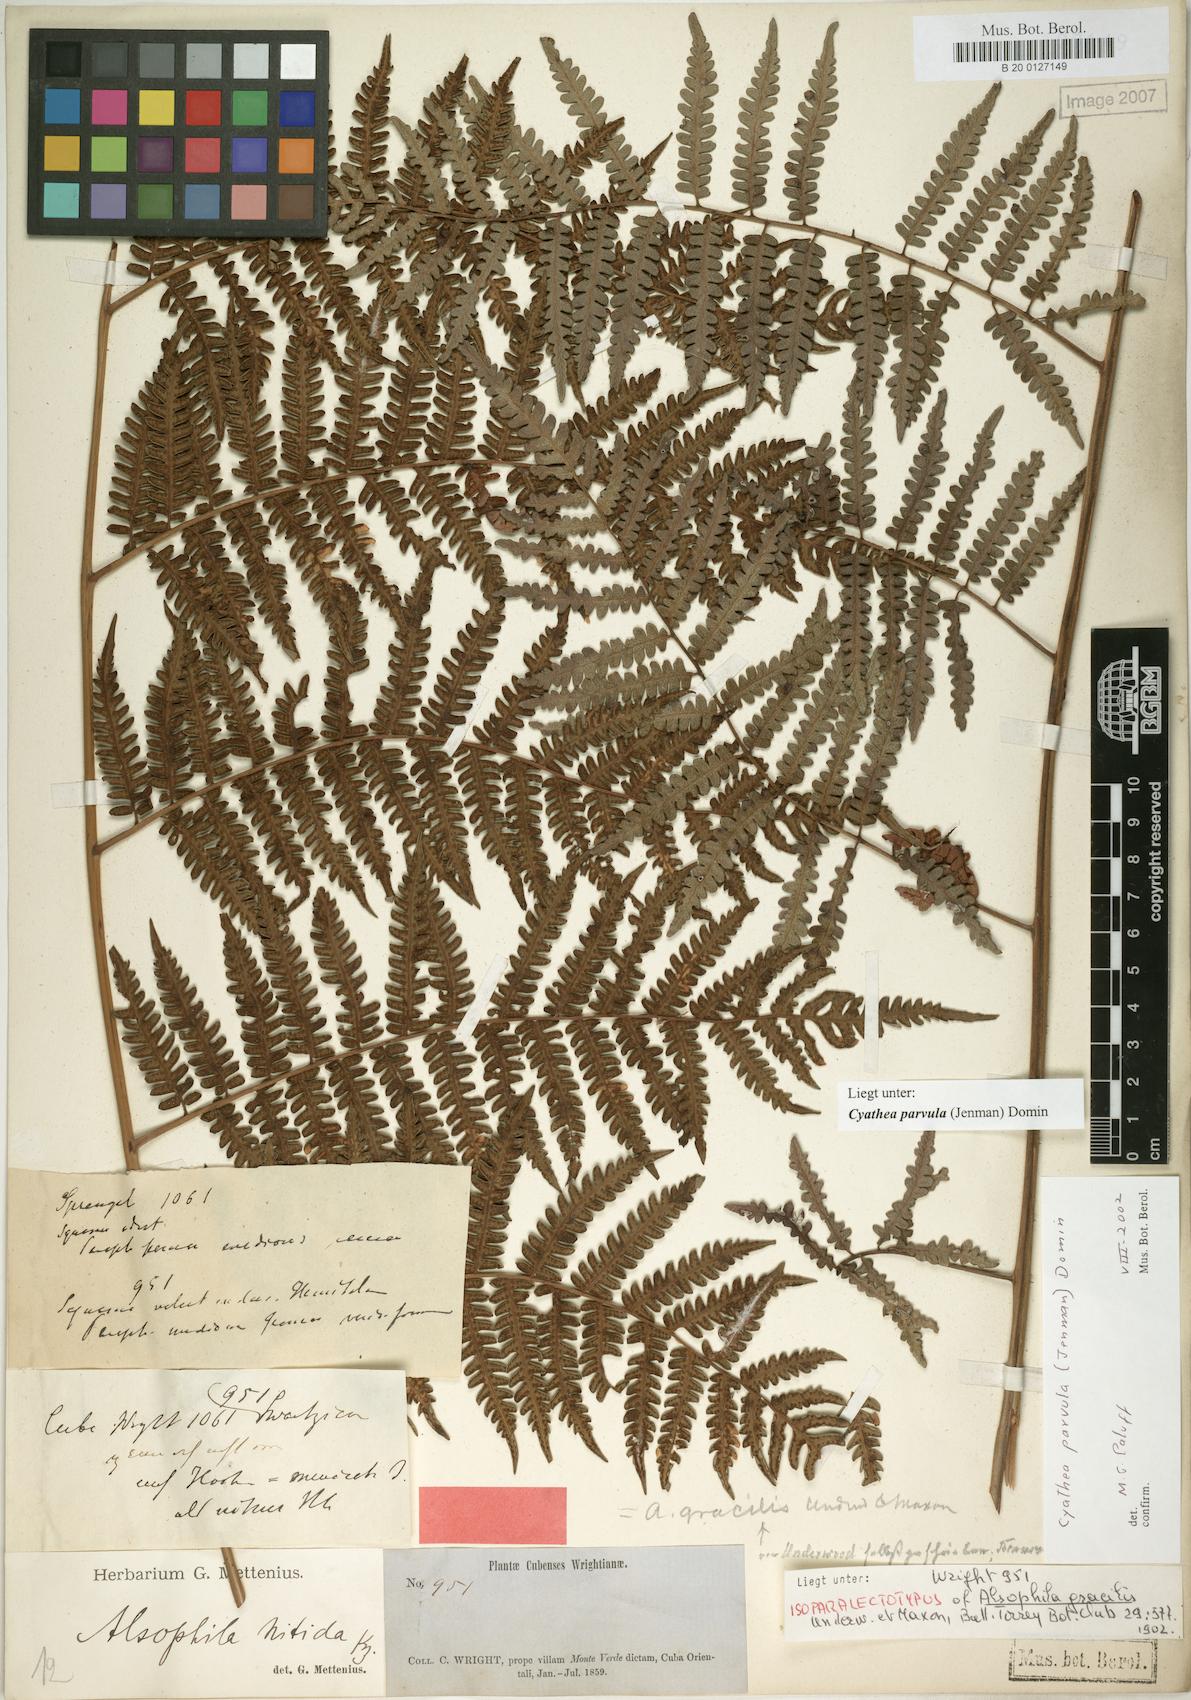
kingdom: Plantae
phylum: Tracheophyta
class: Polypodiopsida
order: Cyatheales
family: Cyatheaceae
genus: Cyathea
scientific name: Cyathea parvula
